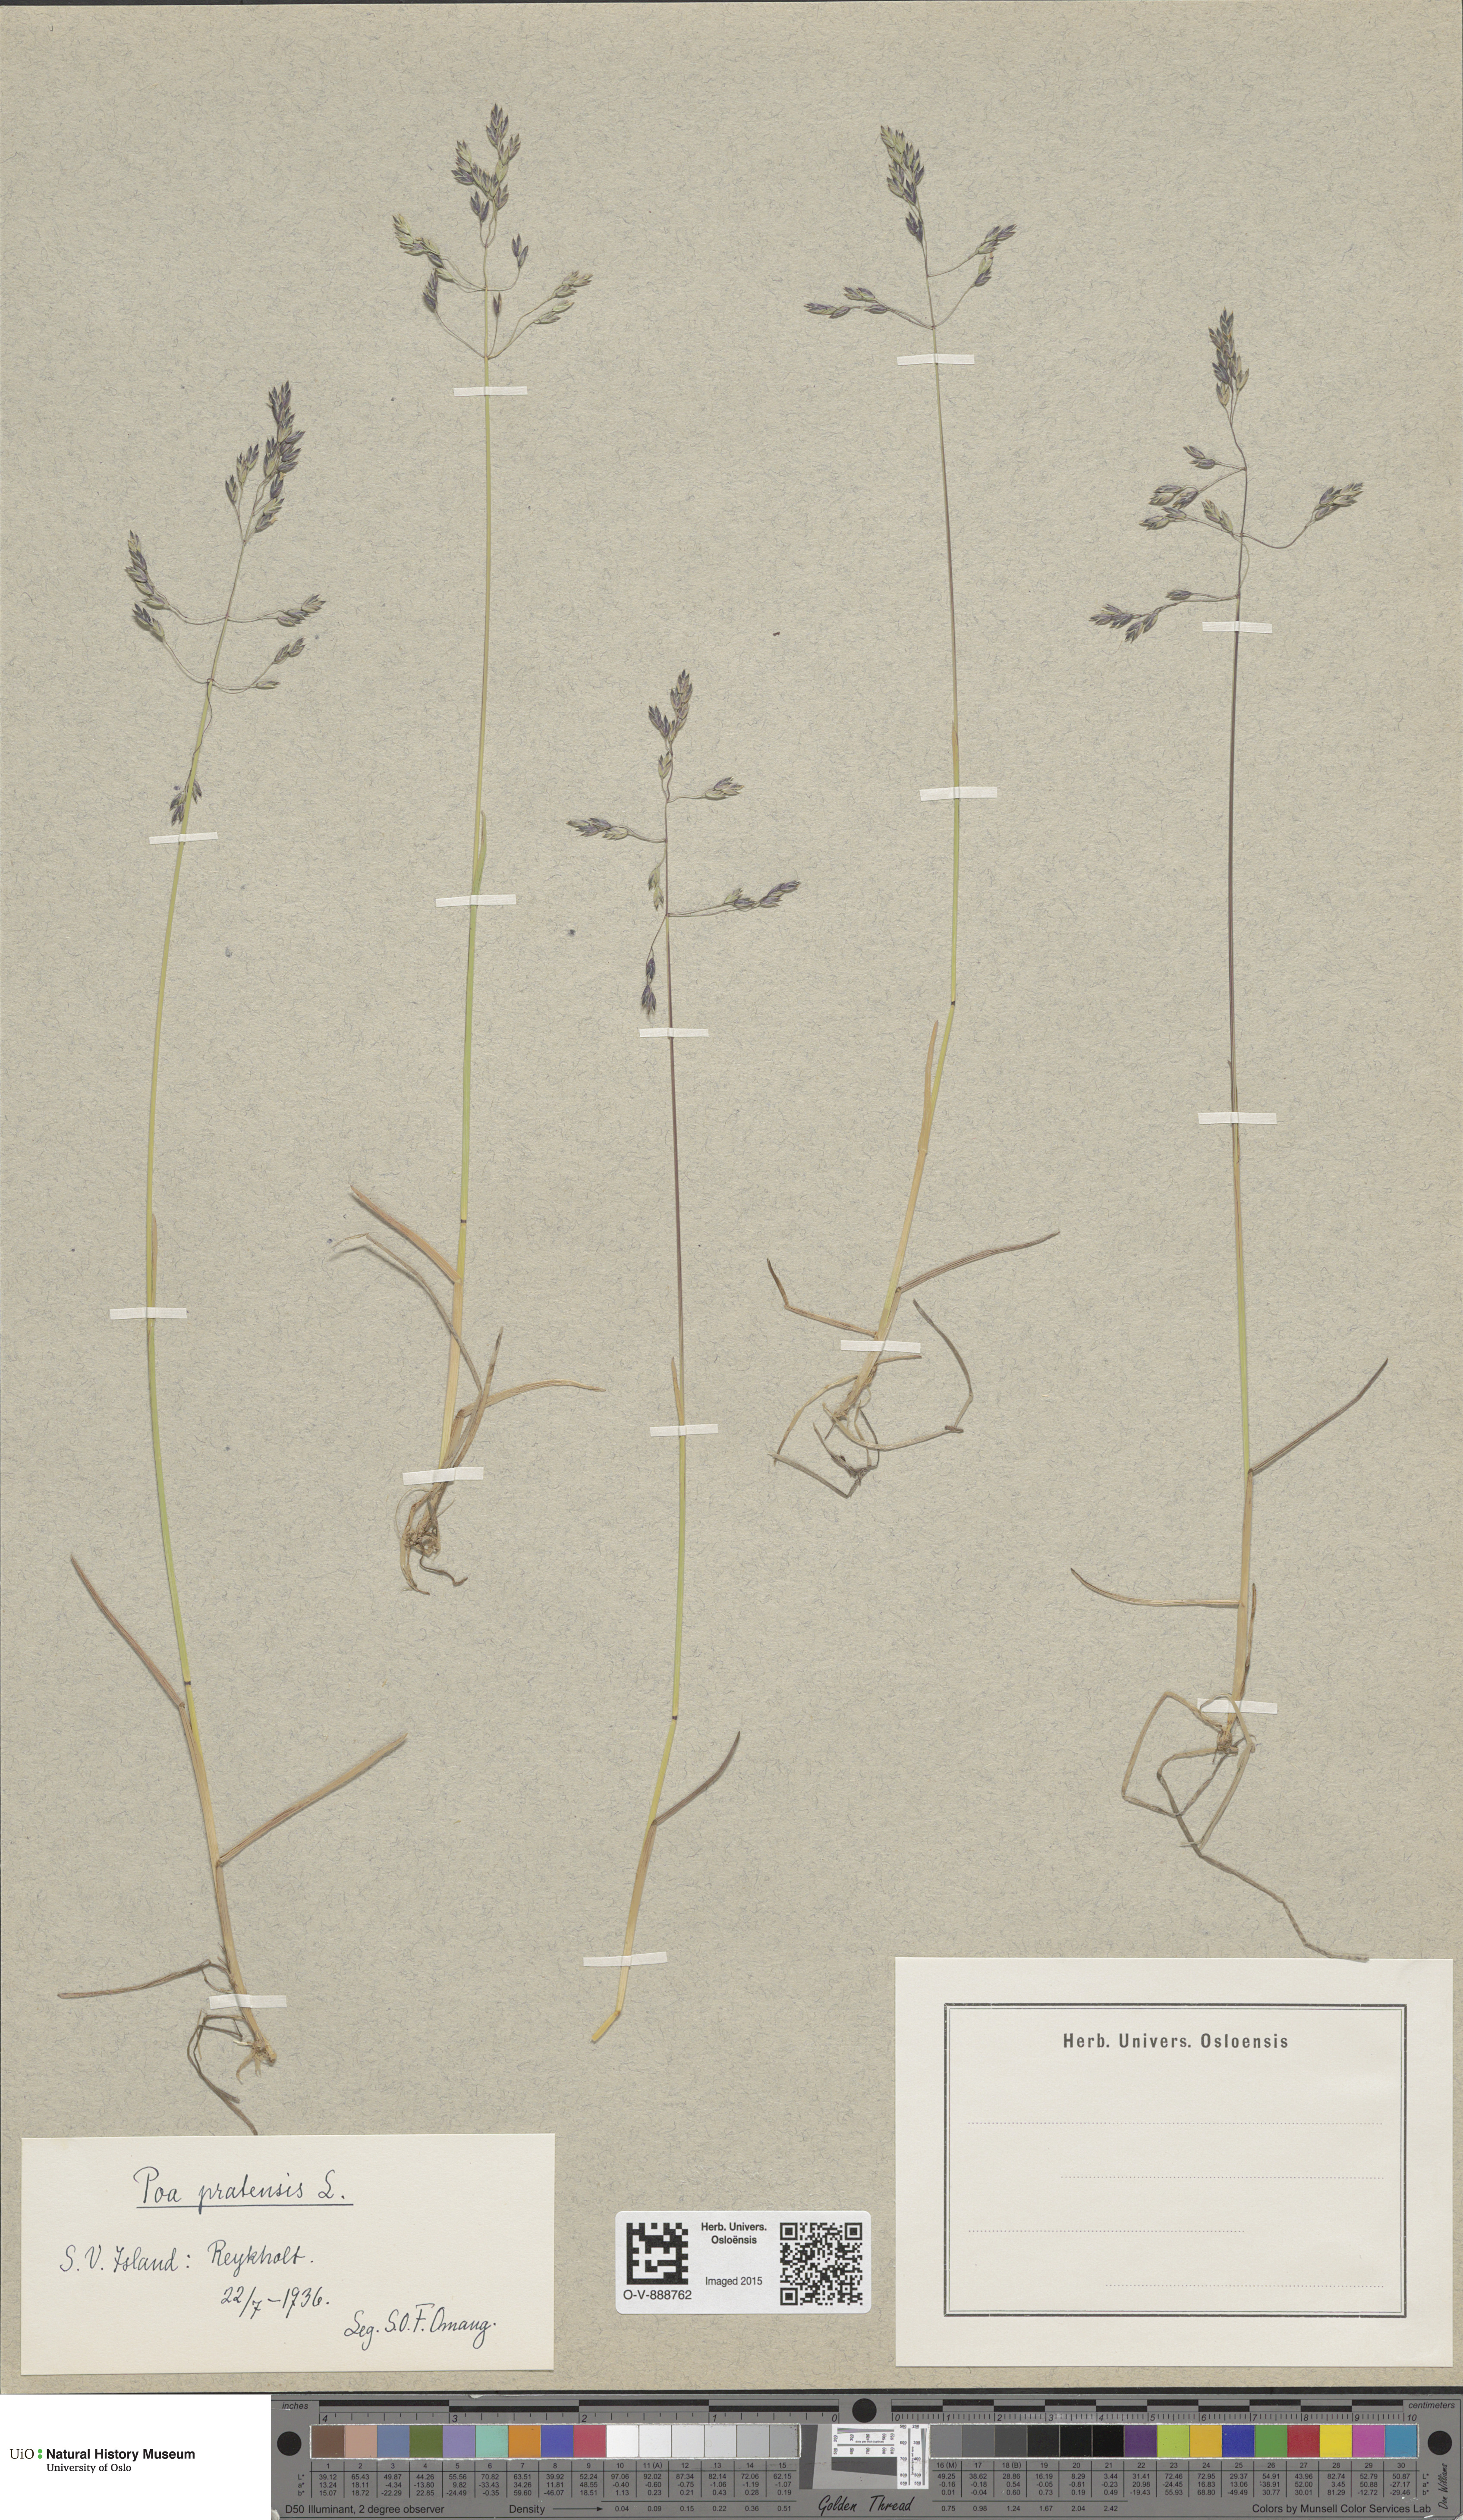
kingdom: Plantae
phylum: Tracheophyta
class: Liliopsida
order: Poales
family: Poaceae
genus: Poa
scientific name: Poa pratensis
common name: Kentucky bluegrass
